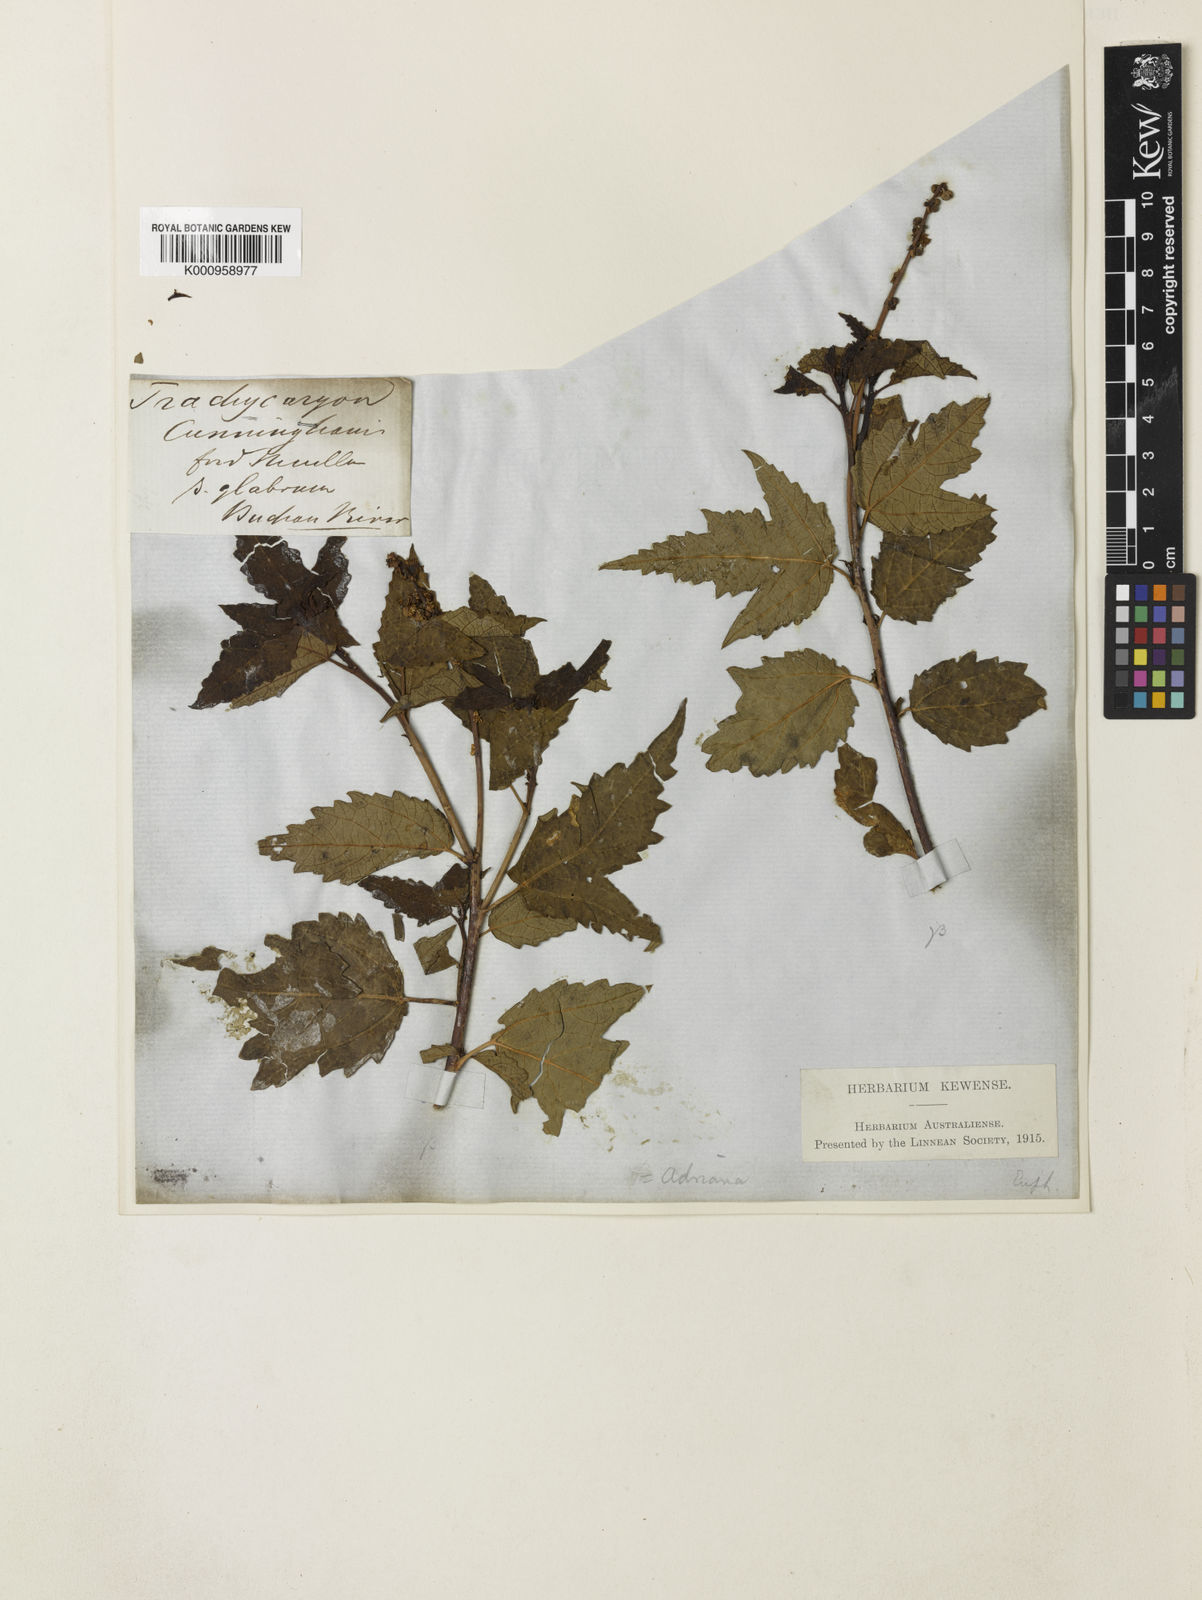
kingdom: Plantae
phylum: Tracheophyta
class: Magnoliopsida
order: Malpighiales
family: Euphorbiaceae
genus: Adriana
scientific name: Adriana tomentosa
